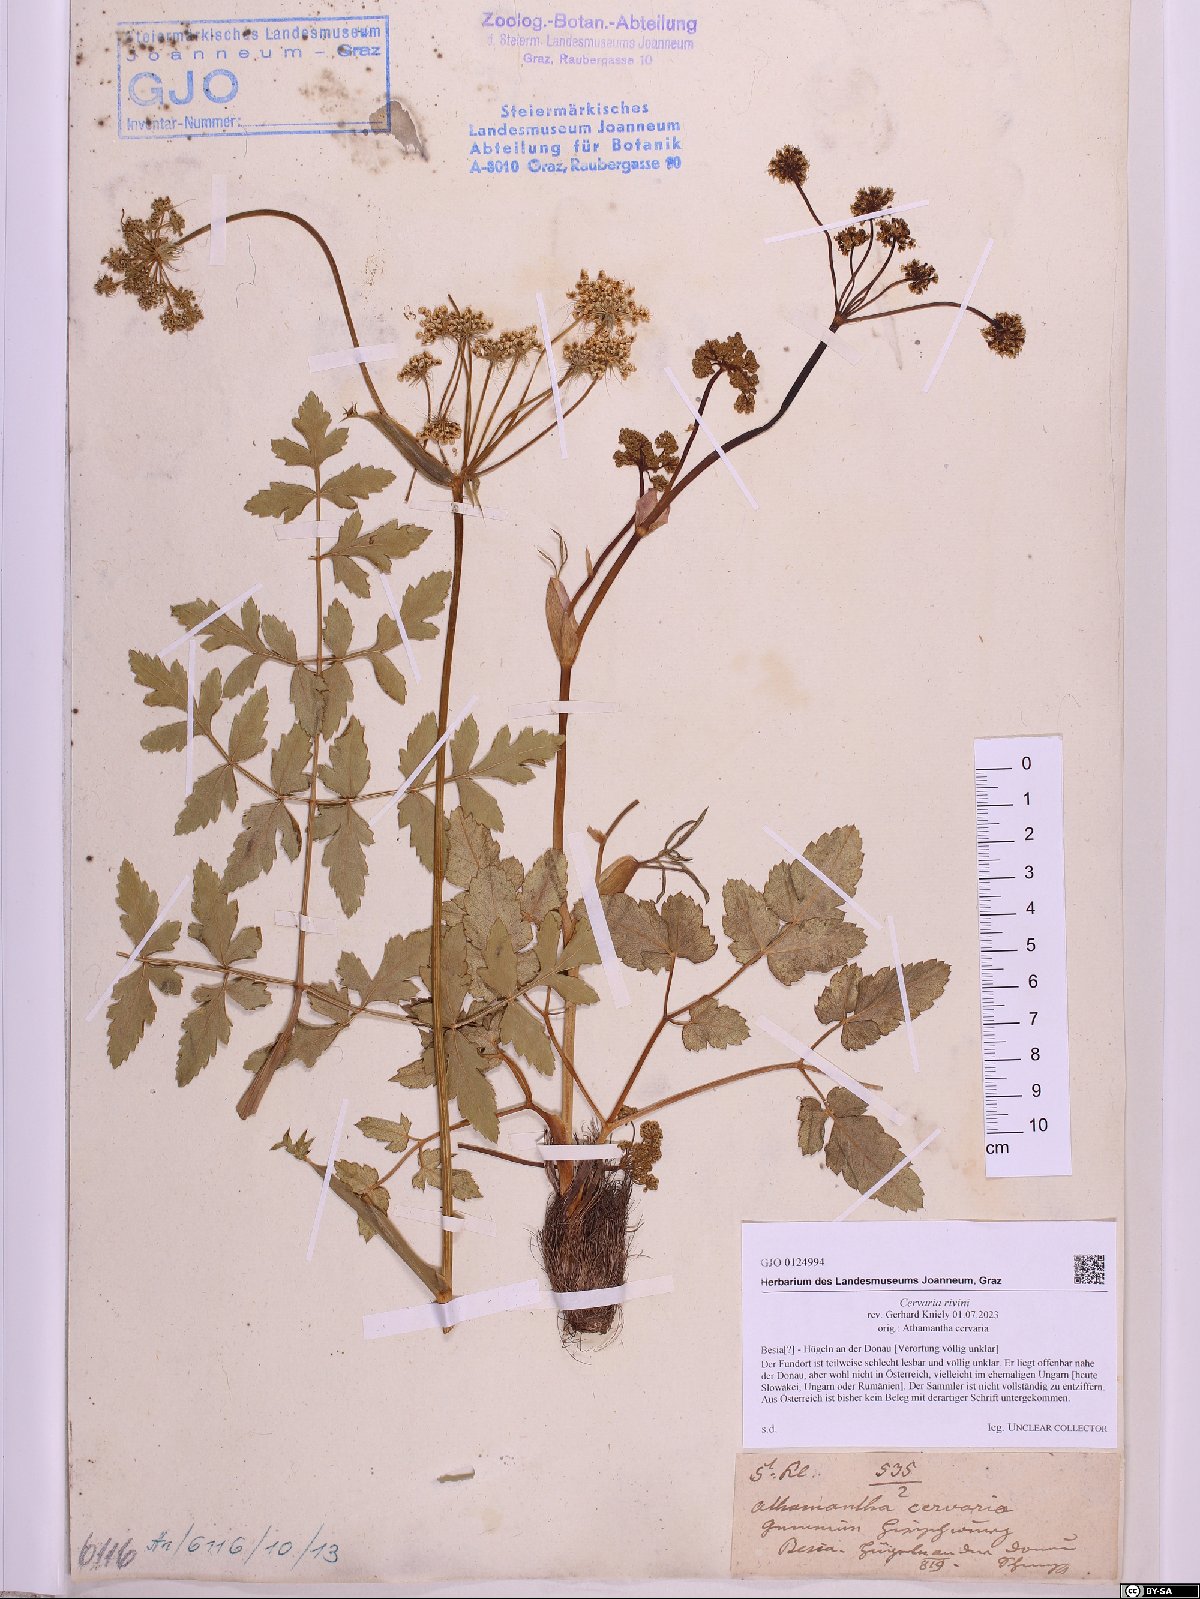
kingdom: Plantae
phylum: Tracheophyta
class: Magnoliopsida
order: Apiales
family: Apiaceae
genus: Cervaria
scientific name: Cervaria rivini
